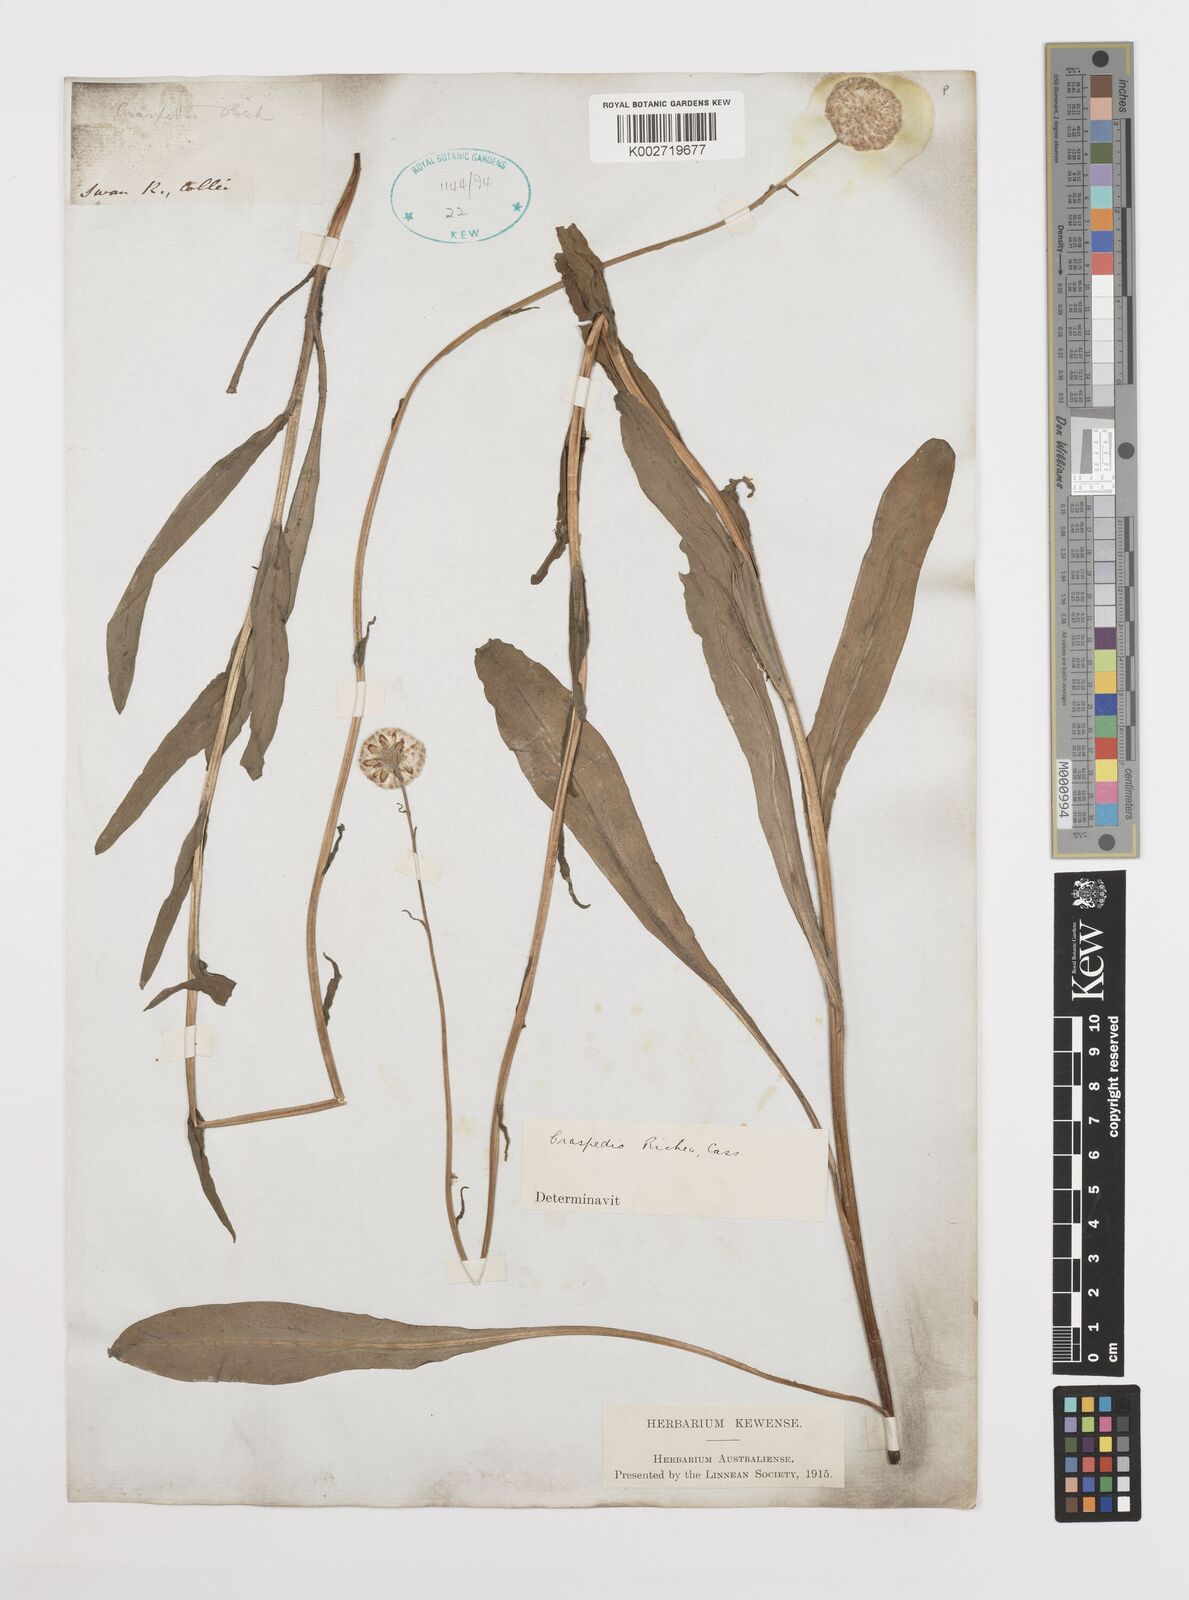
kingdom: Plantae
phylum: Tracheophyta
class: Magnoliopsida
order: Asterales
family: Asteraceae
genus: Craspedia
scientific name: Craspedia glauca
